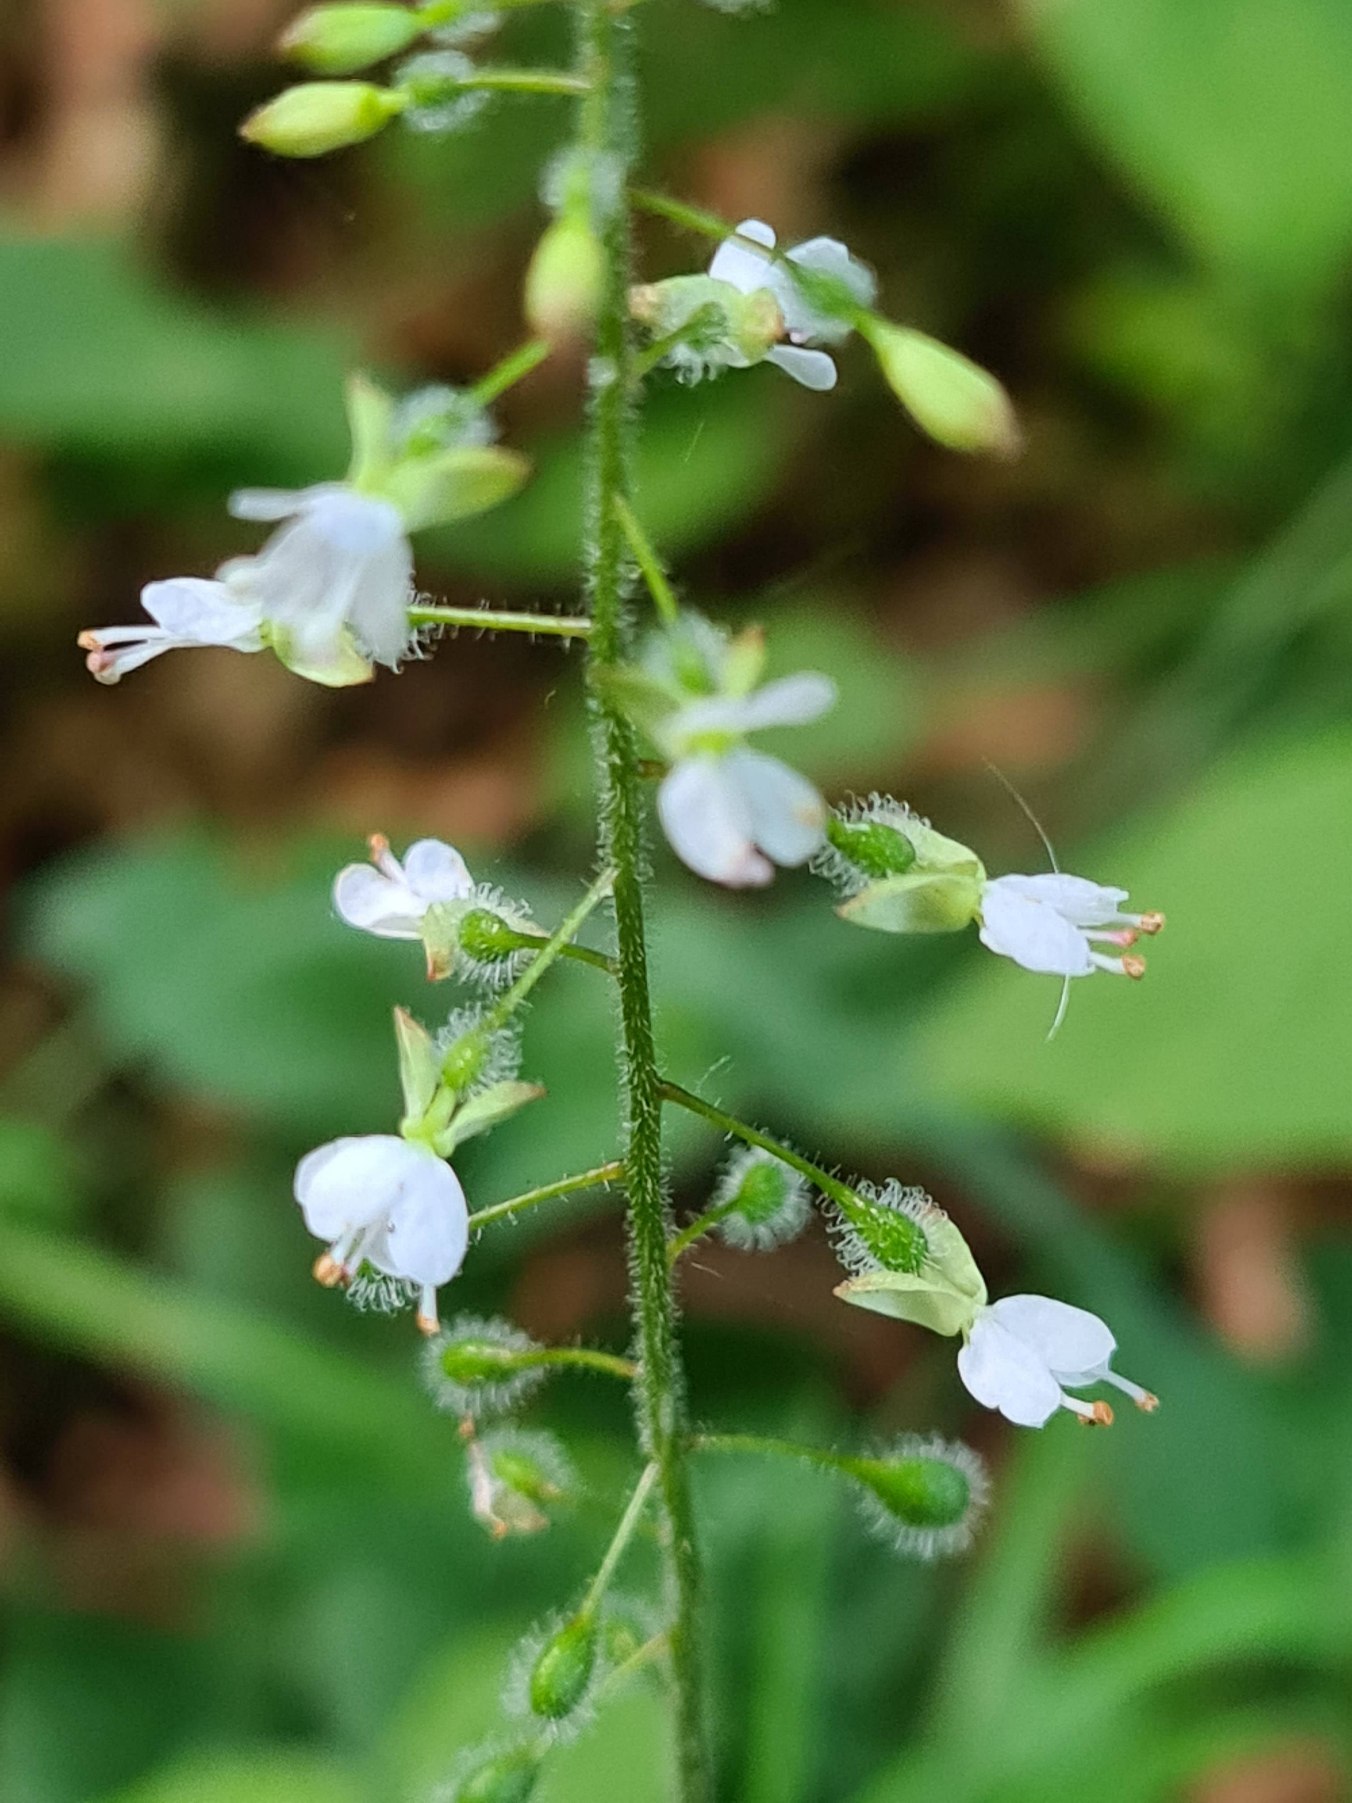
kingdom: Plantae
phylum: Tracheophyta
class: Magnoliopsida
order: Myrtales
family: Onagraceae
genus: Circaea
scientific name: Circaea lutetiana
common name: Dunet steffensurt
